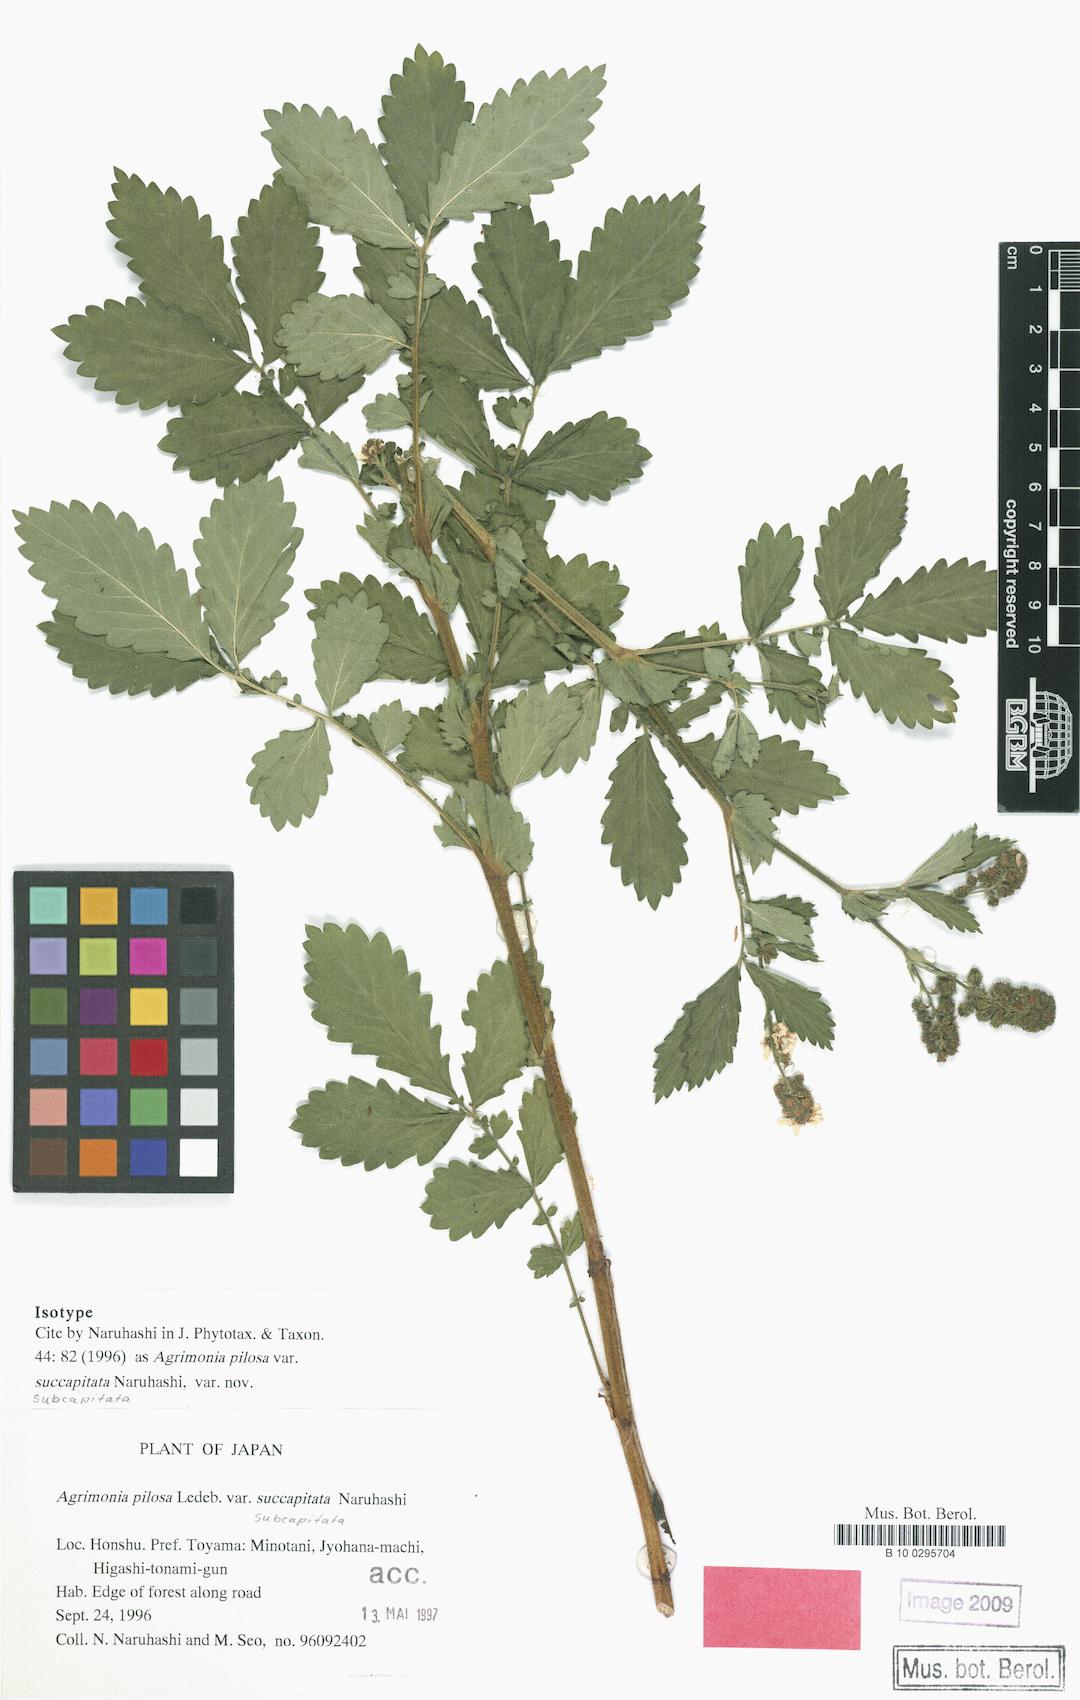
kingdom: Plantae
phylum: Tracheophyta
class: Magnoliopsida
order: Rosales
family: Rosaceae
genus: Agrimonia
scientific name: Agrimonia noguchii
